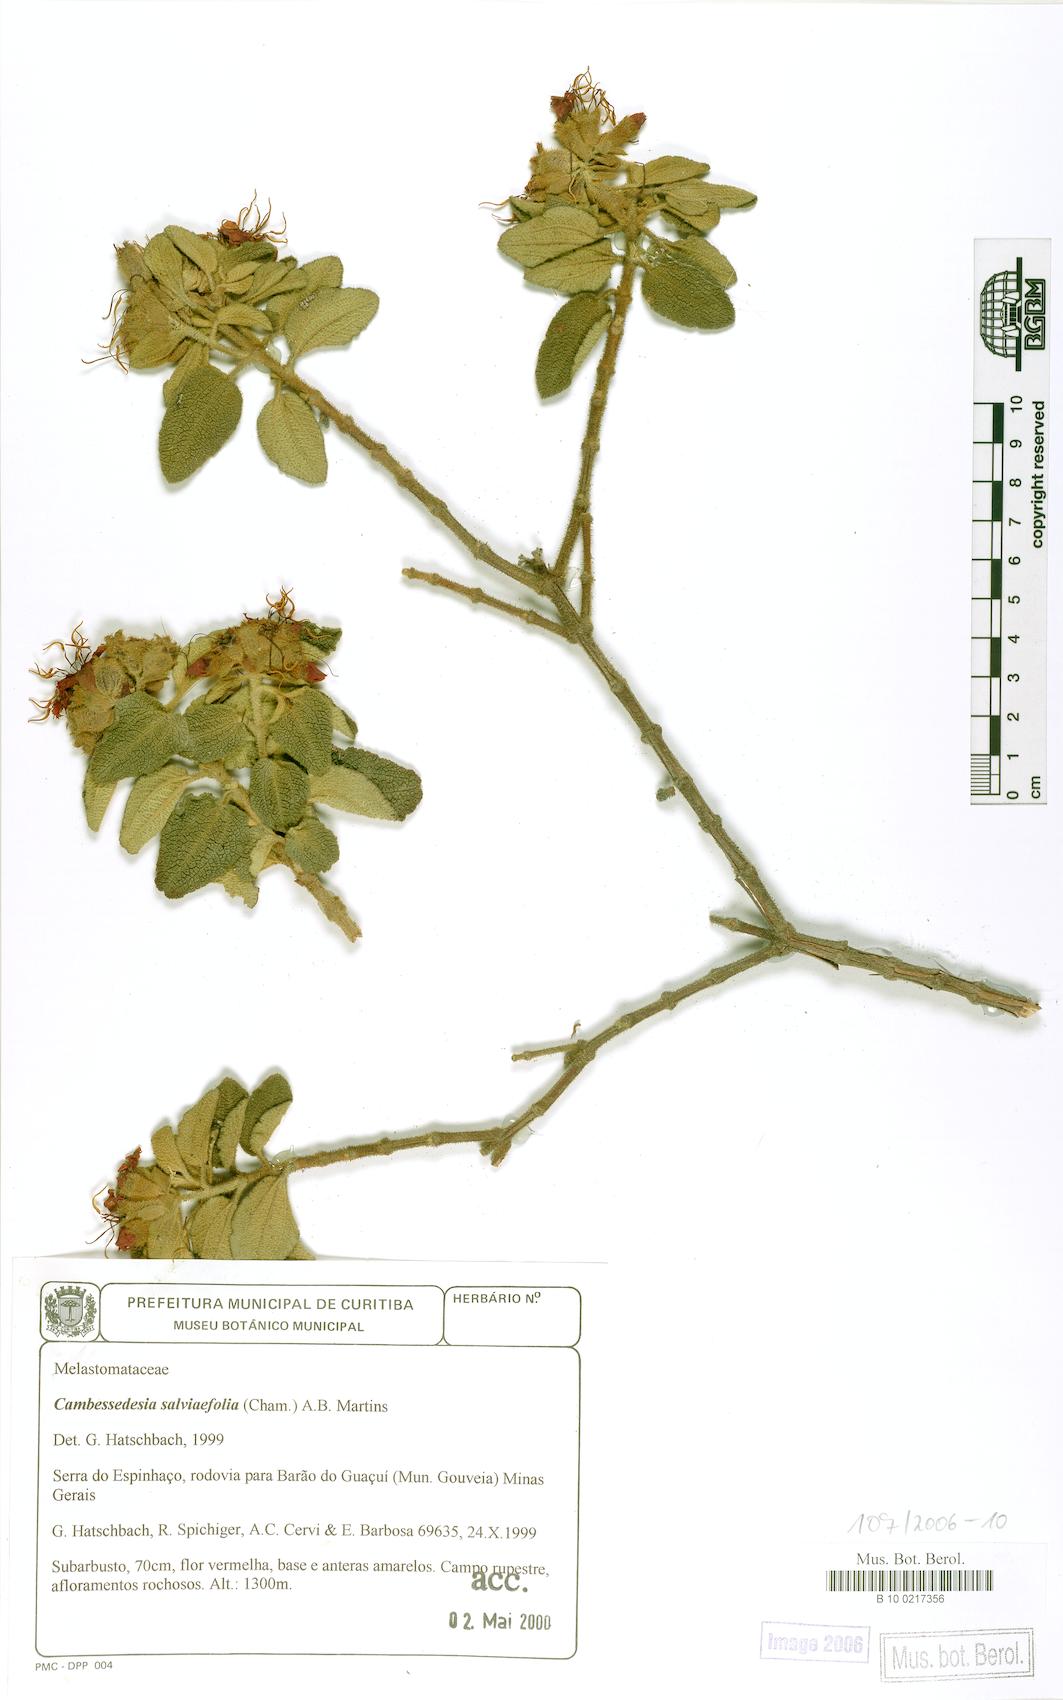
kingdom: Plantae
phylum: Tracheophyta
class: Magnoliopsida
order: Myrtales
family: Melastomataceae
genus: Cambessedesia
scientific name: Cambessedesia salviifolia
